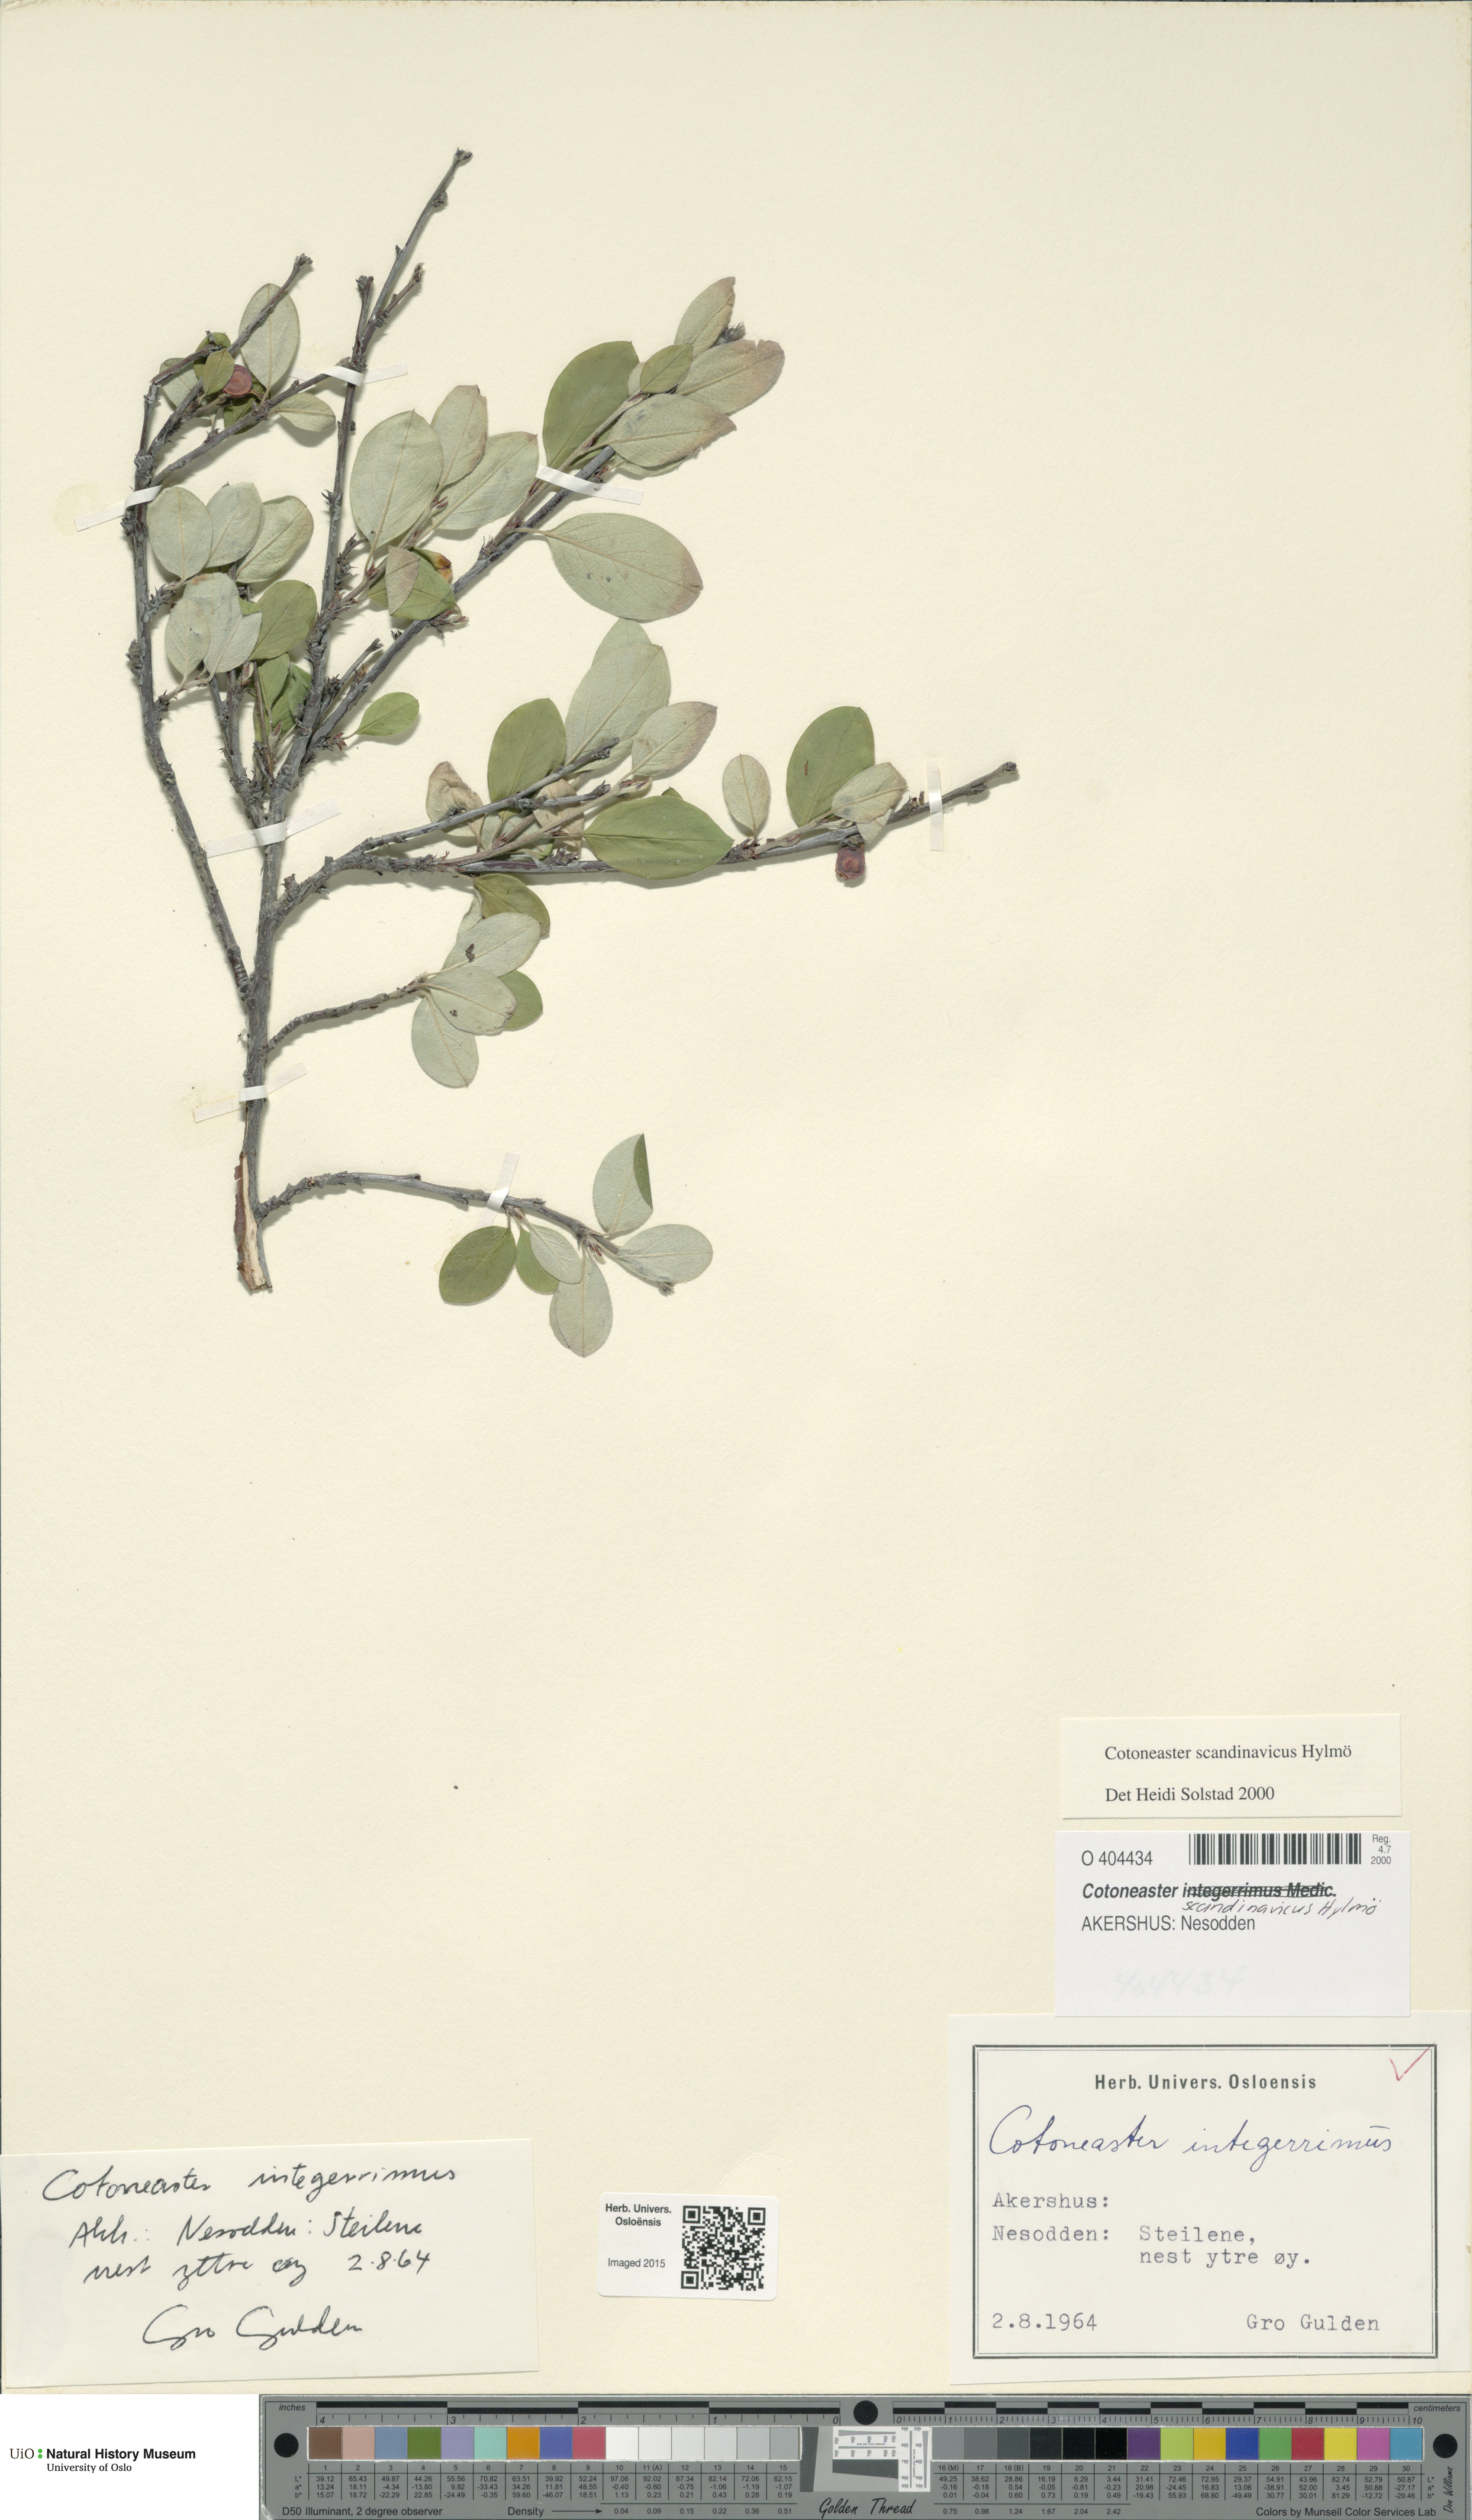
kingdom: Plantae
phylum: Tracheophyta
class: Magnoliopsida
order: Rosales
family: Rosaceae
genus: Cotoneaster
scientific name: Cotoneaster integerrimus
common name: Wild cotoneaster
